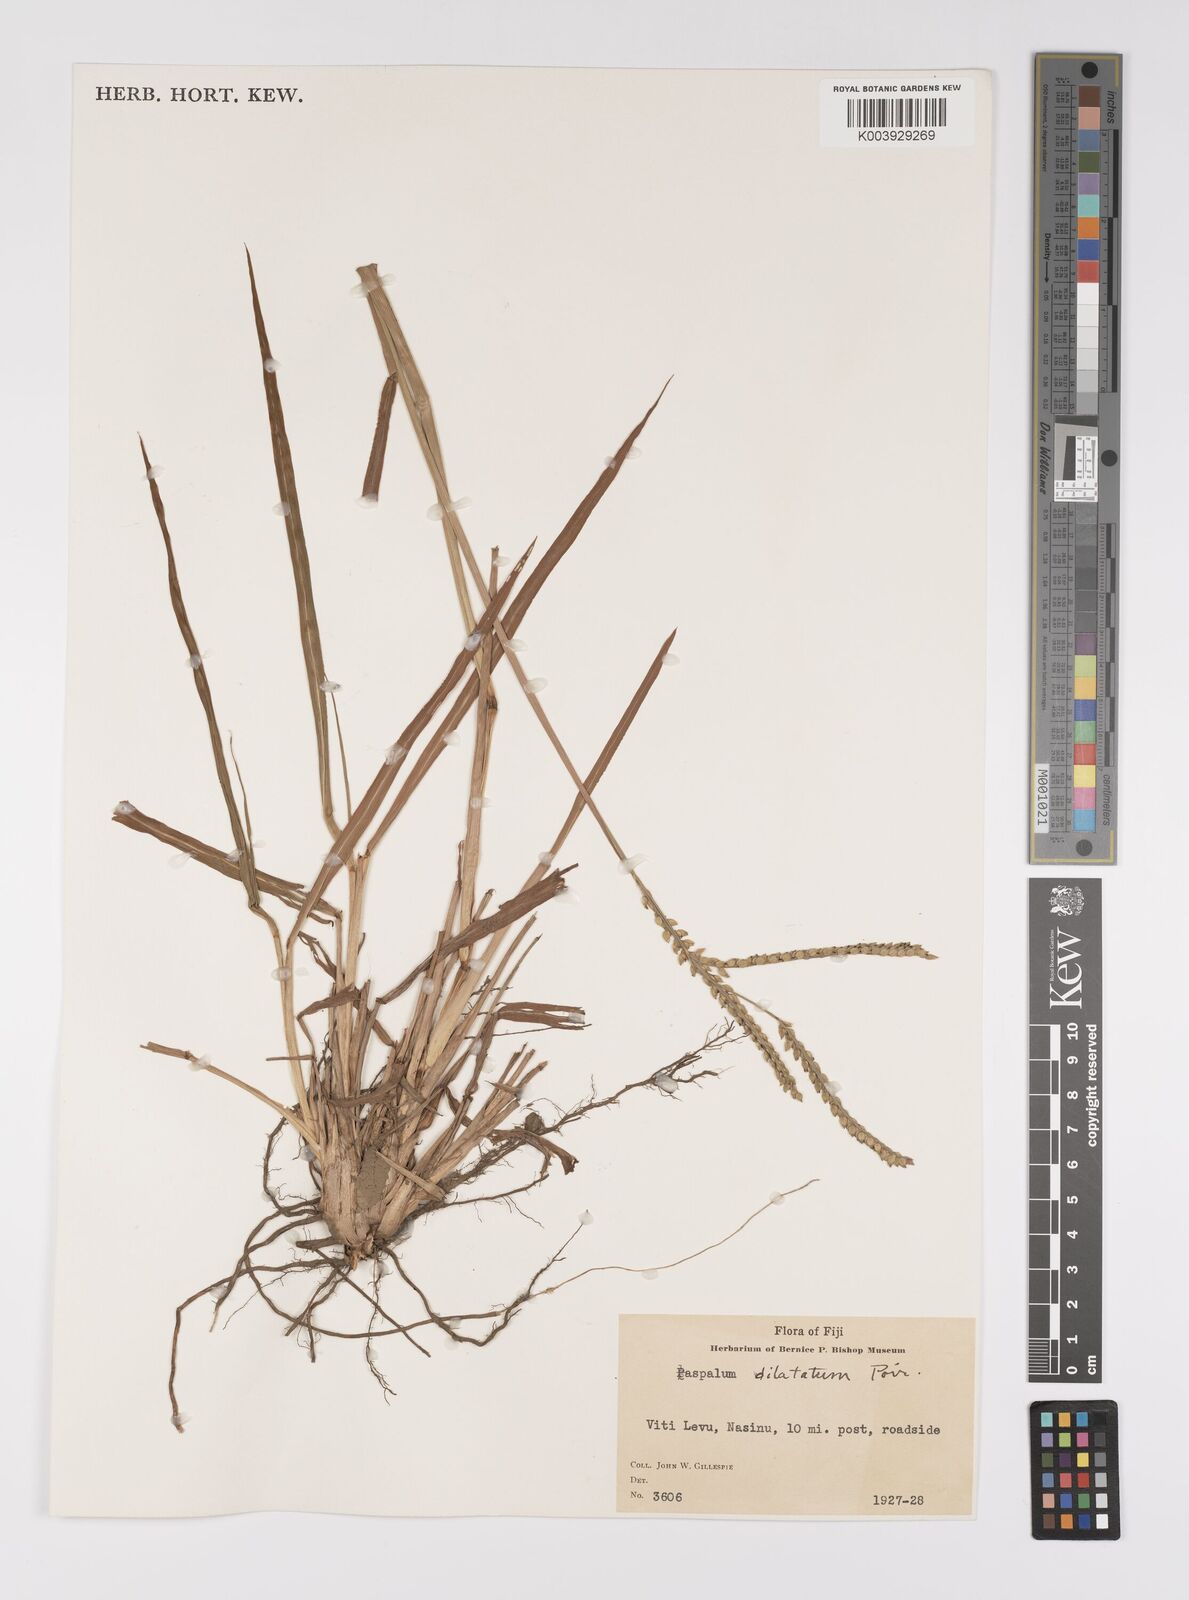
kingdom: Plantae
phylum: Tracheophyta
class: Liliopsida
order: Poales
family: Poaceae
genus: Paspalum
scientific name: Paspalum dilatatum
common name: Dallisgrass
